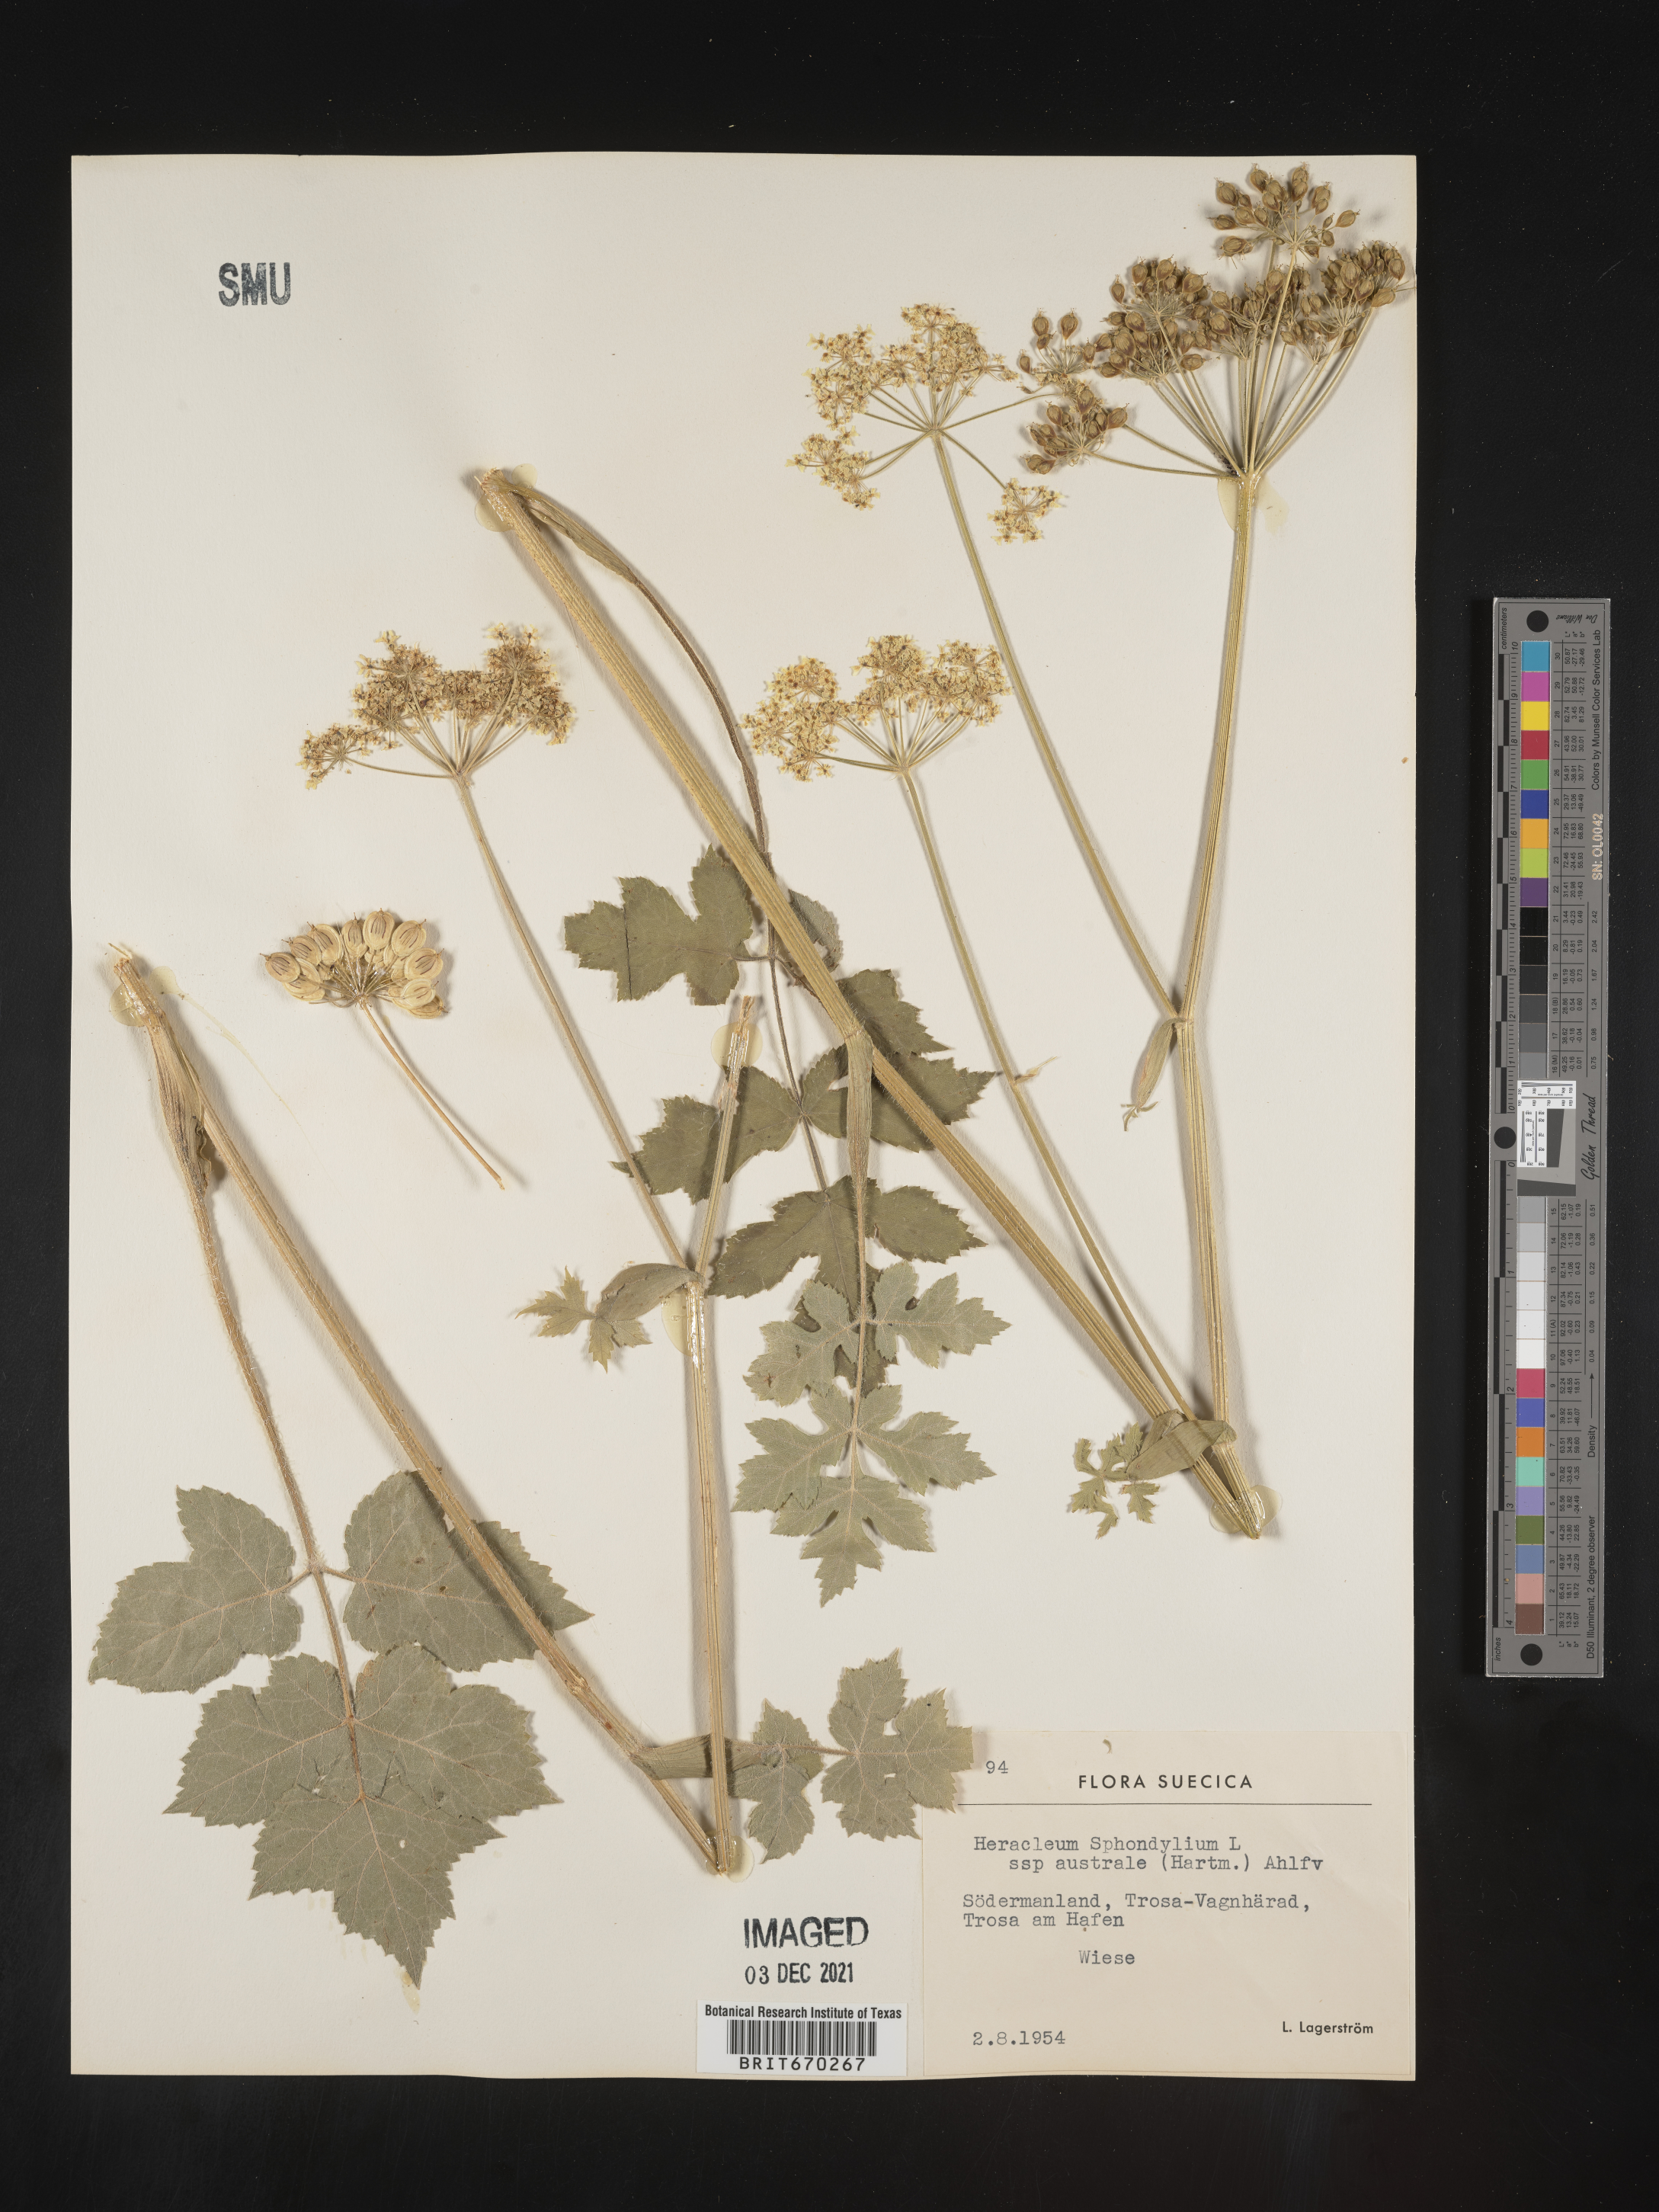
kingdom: Plantae
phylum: Tracheophyta
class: Magnoliopsida
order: Apiales
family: Apiaceae
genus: Heracleum
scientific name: Heracleum
